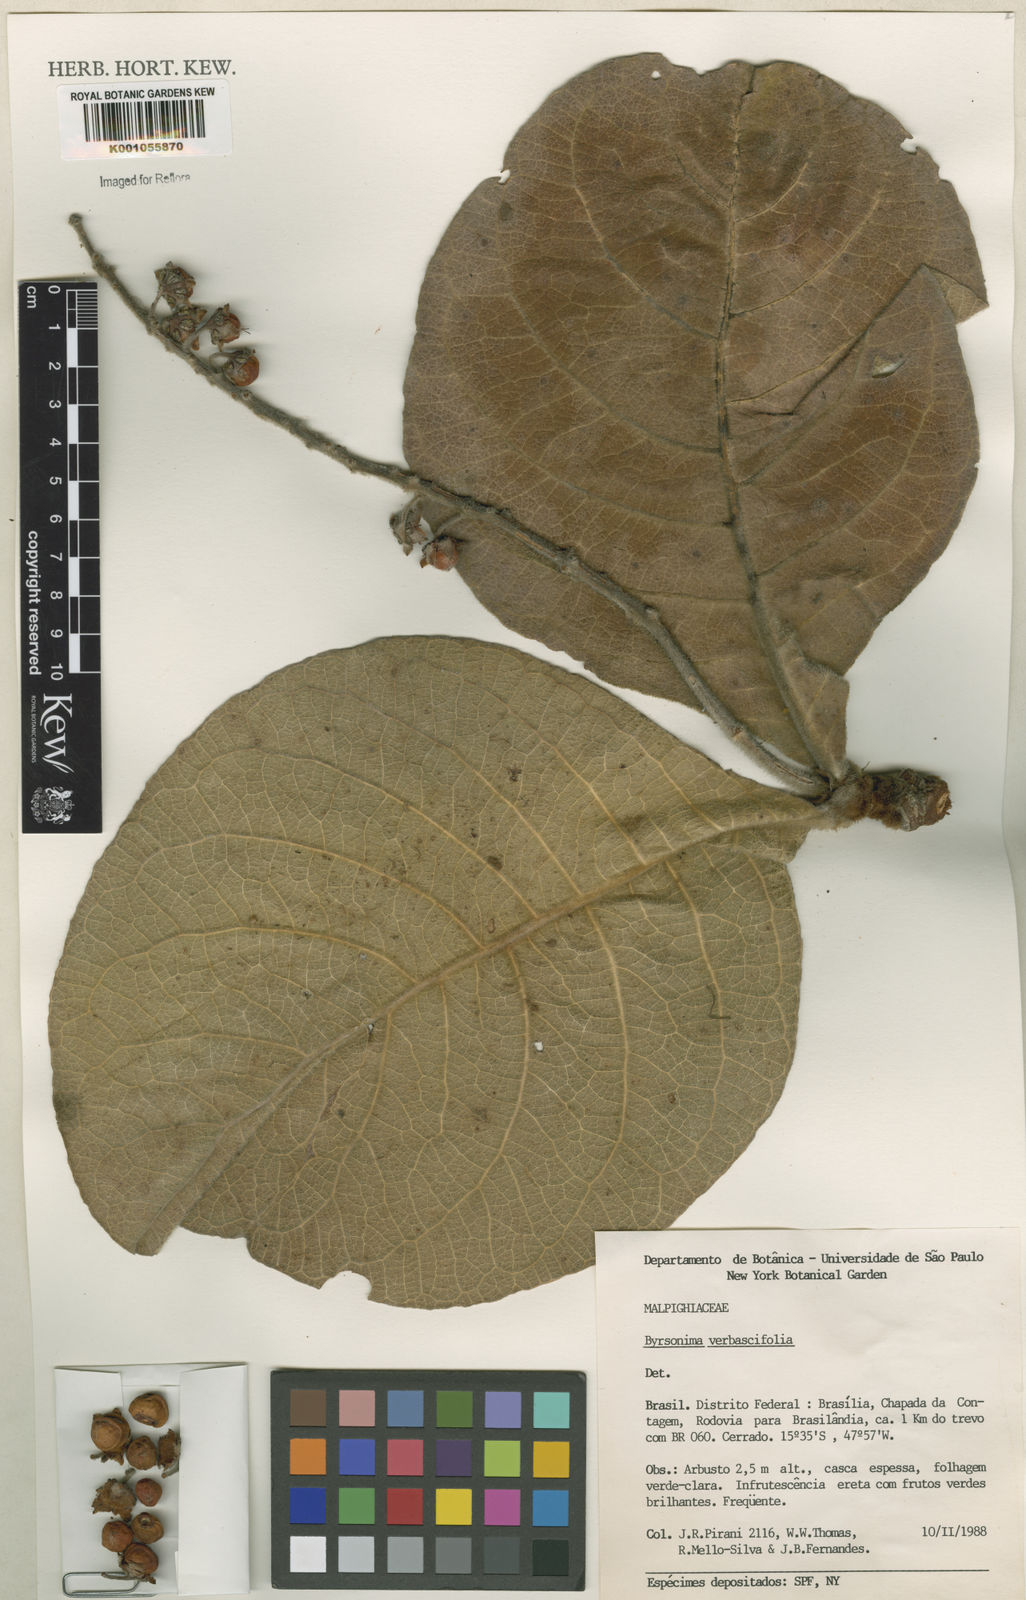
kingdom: Plantae
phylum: Tracheophyta
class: Magnoliopsida
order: Malpighiales
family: Malpighiaceae
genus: Byrsonima
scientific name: Byrsonima verbascifolia
